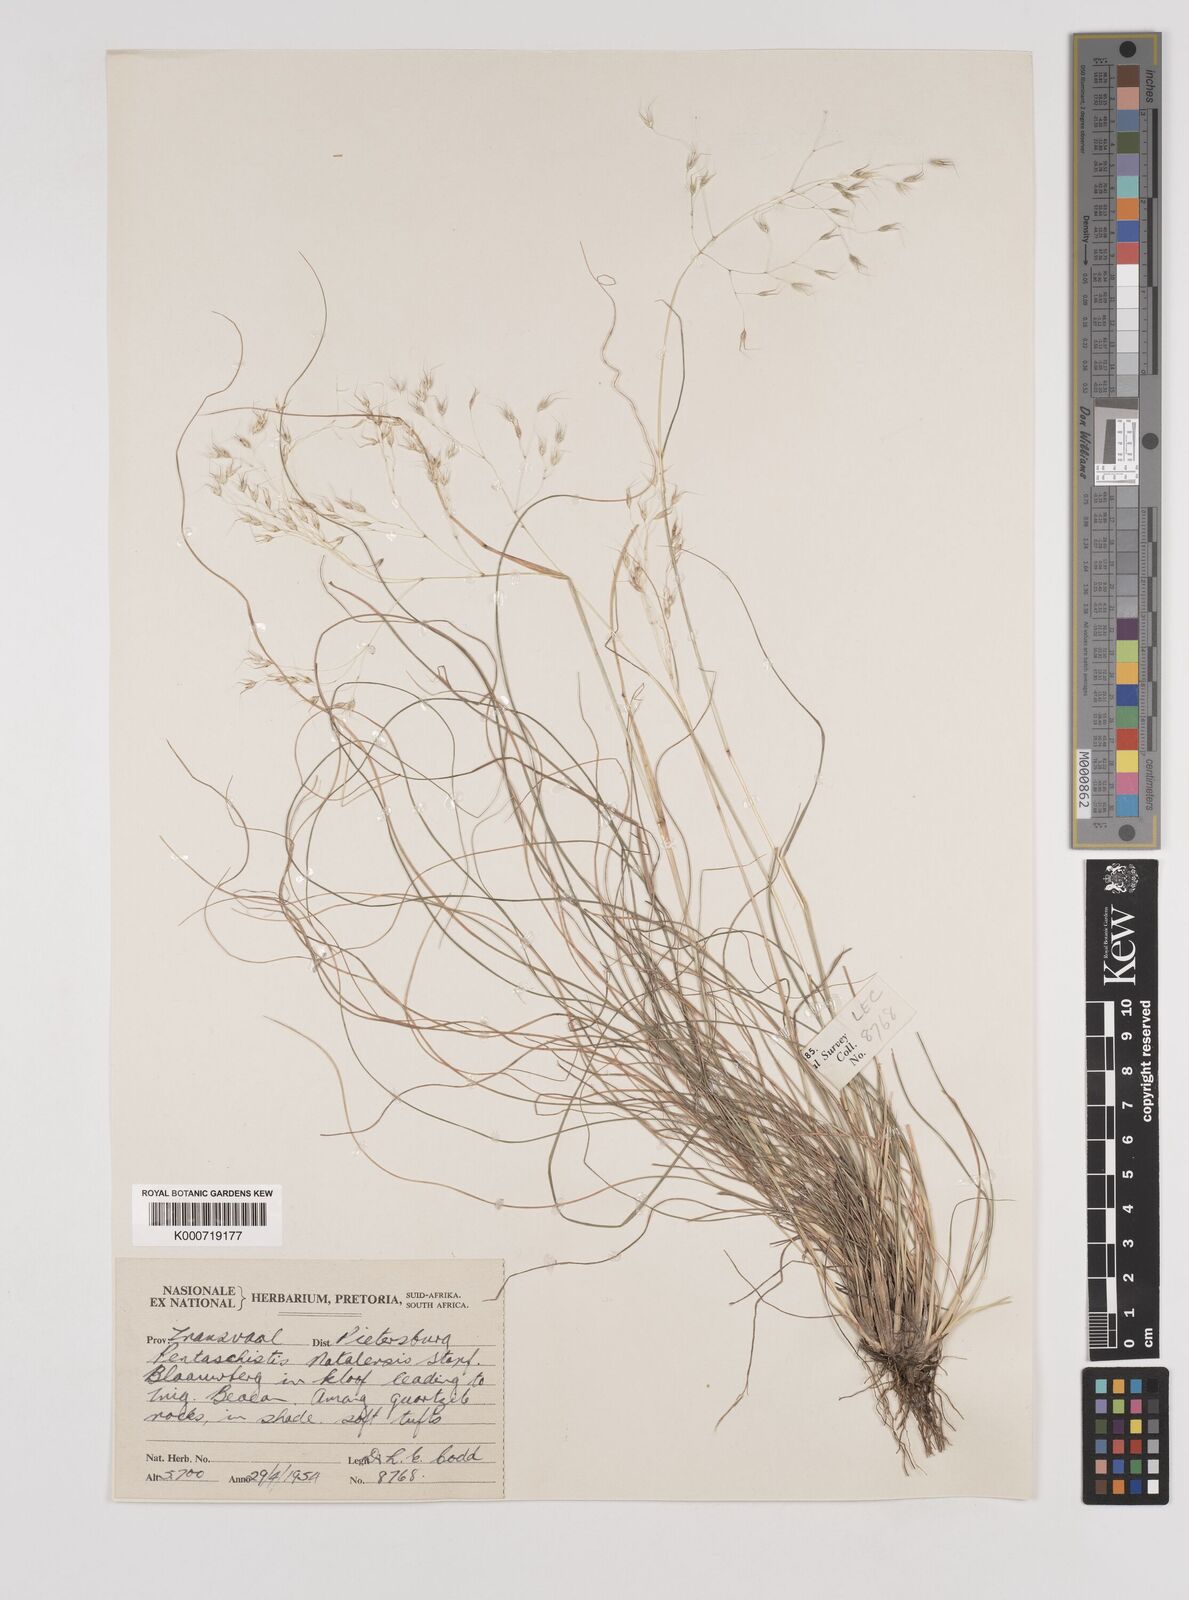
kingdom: Plantae
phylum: Tracheophyta
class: Liliopsida
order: Poales
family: Poaceae
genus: Pentameris
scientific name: Pentameris natalensis
